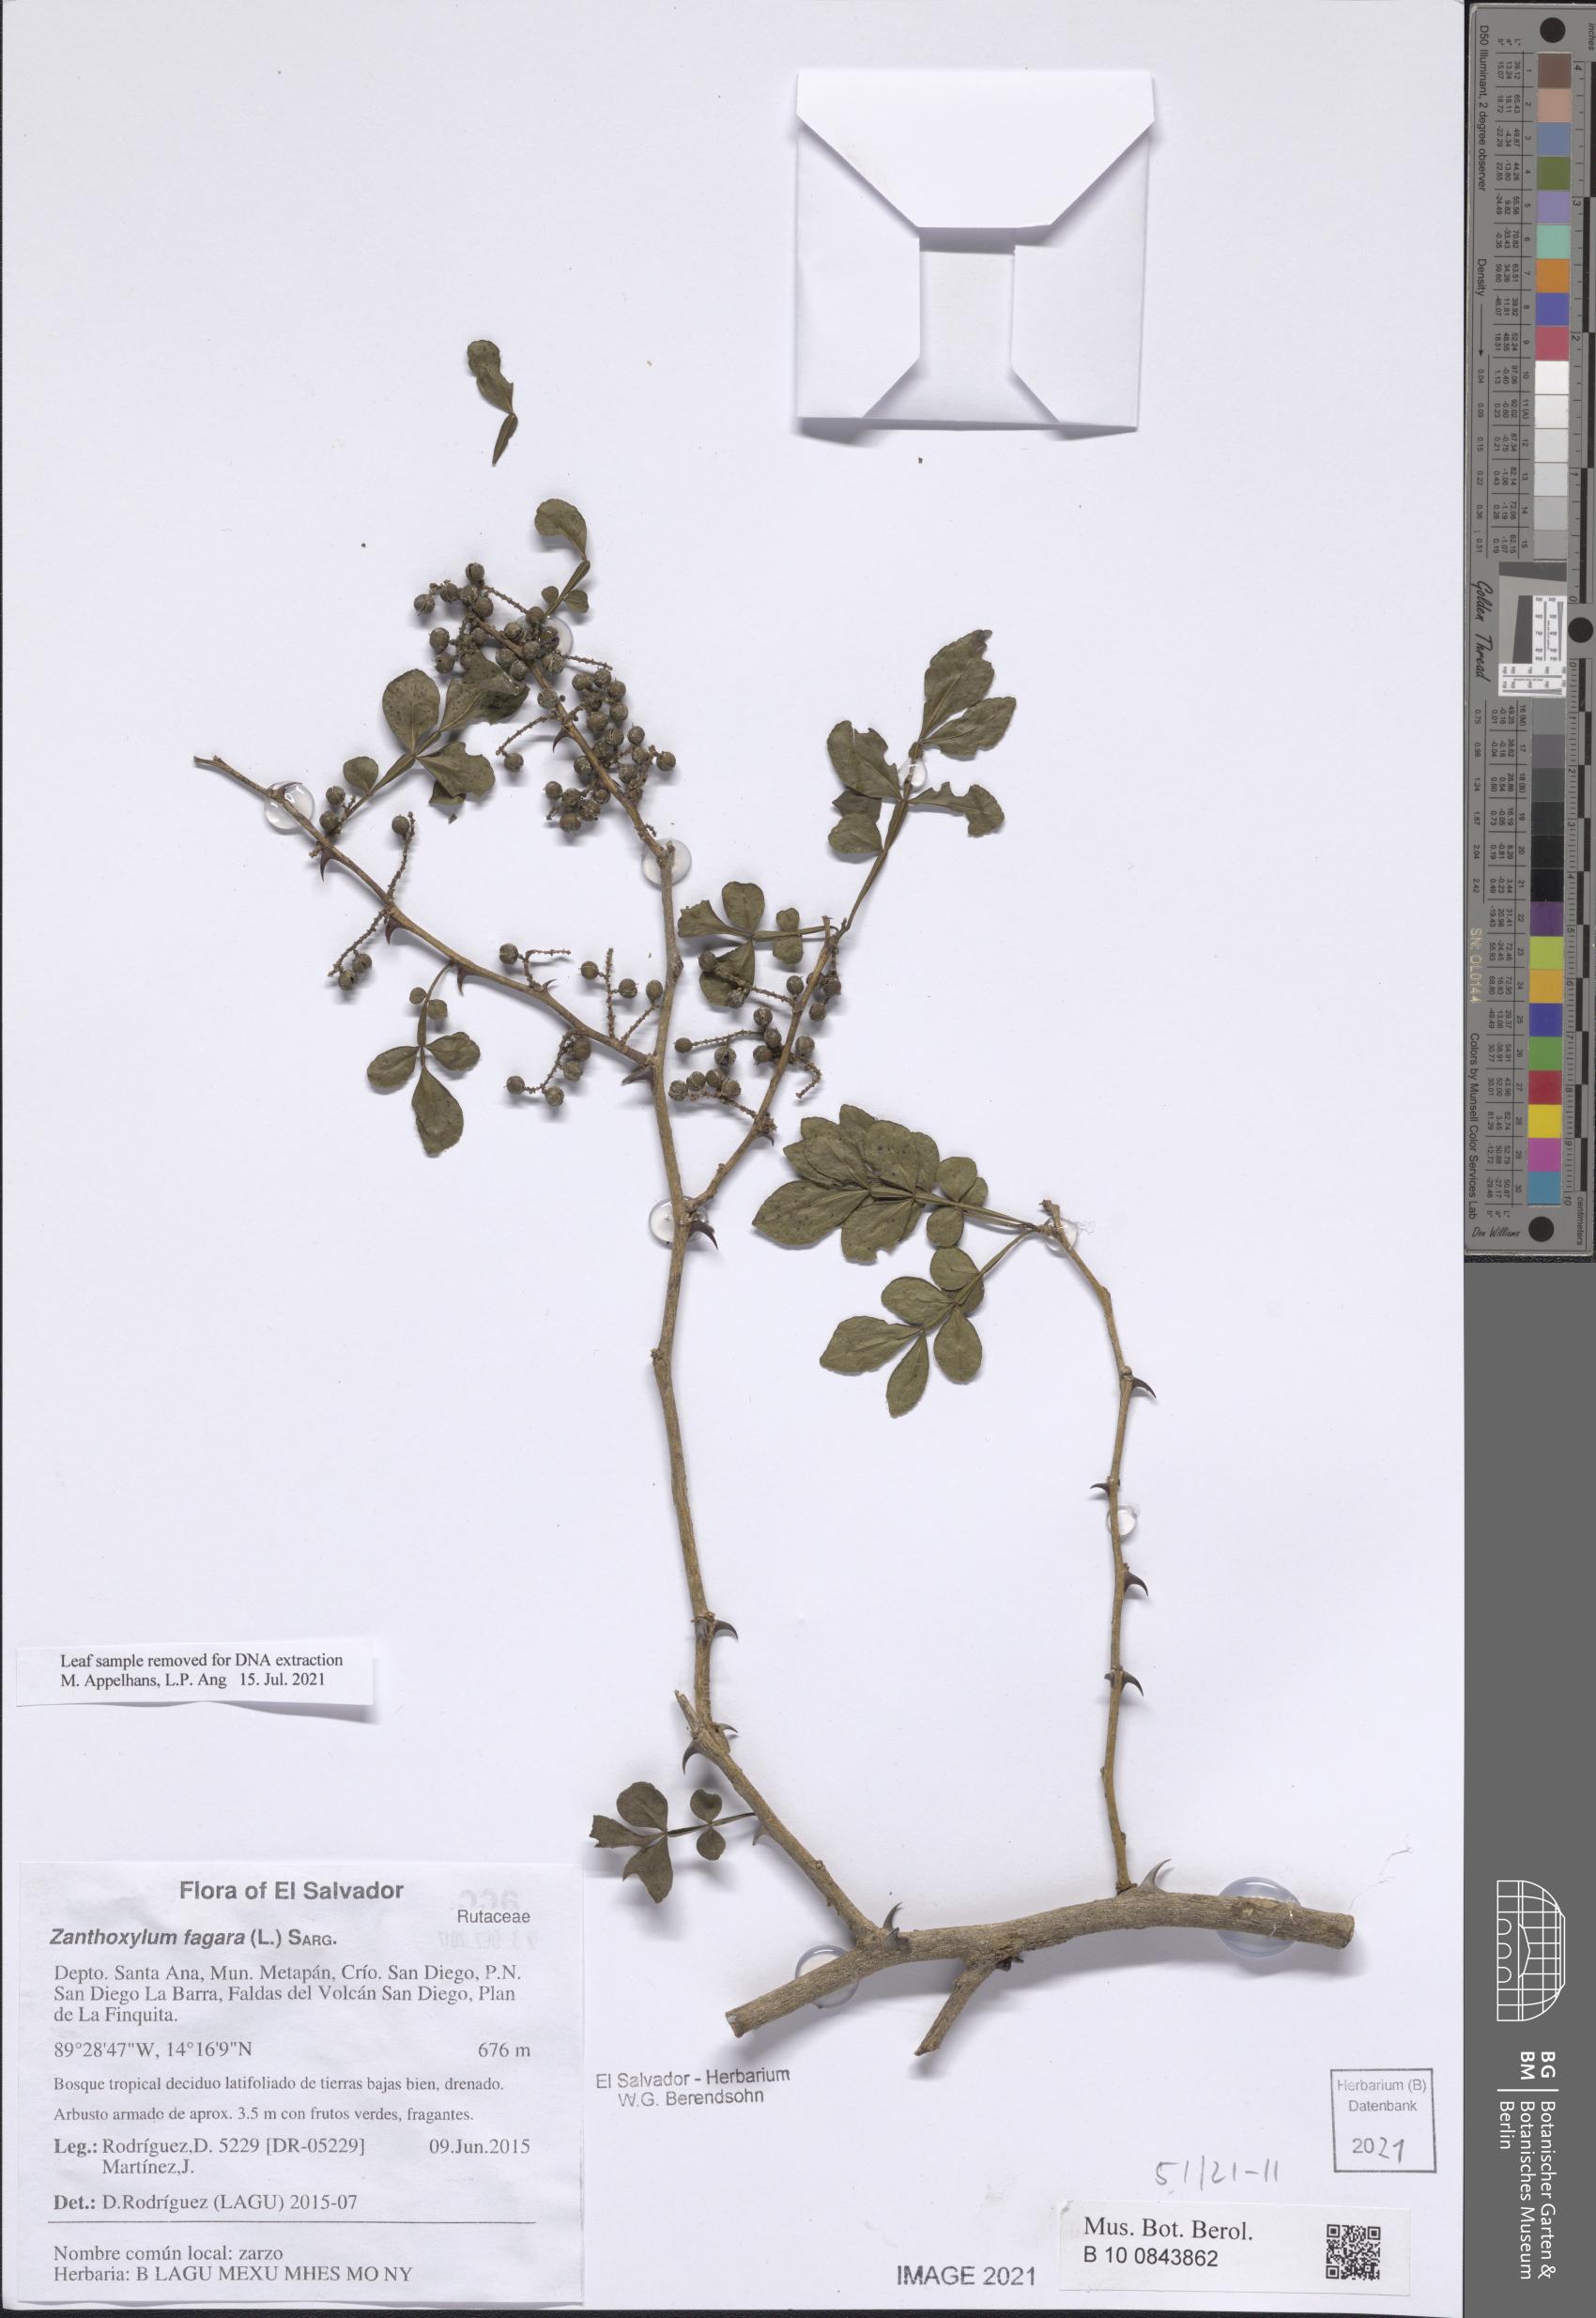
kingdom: Plantae
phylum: Tracheophyta
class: Magnoliopsida
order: Sapindales
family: Rutaceae
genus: Zanthoxylum
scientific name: Zanthoxylum fagara
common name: Lime prickly-ash
